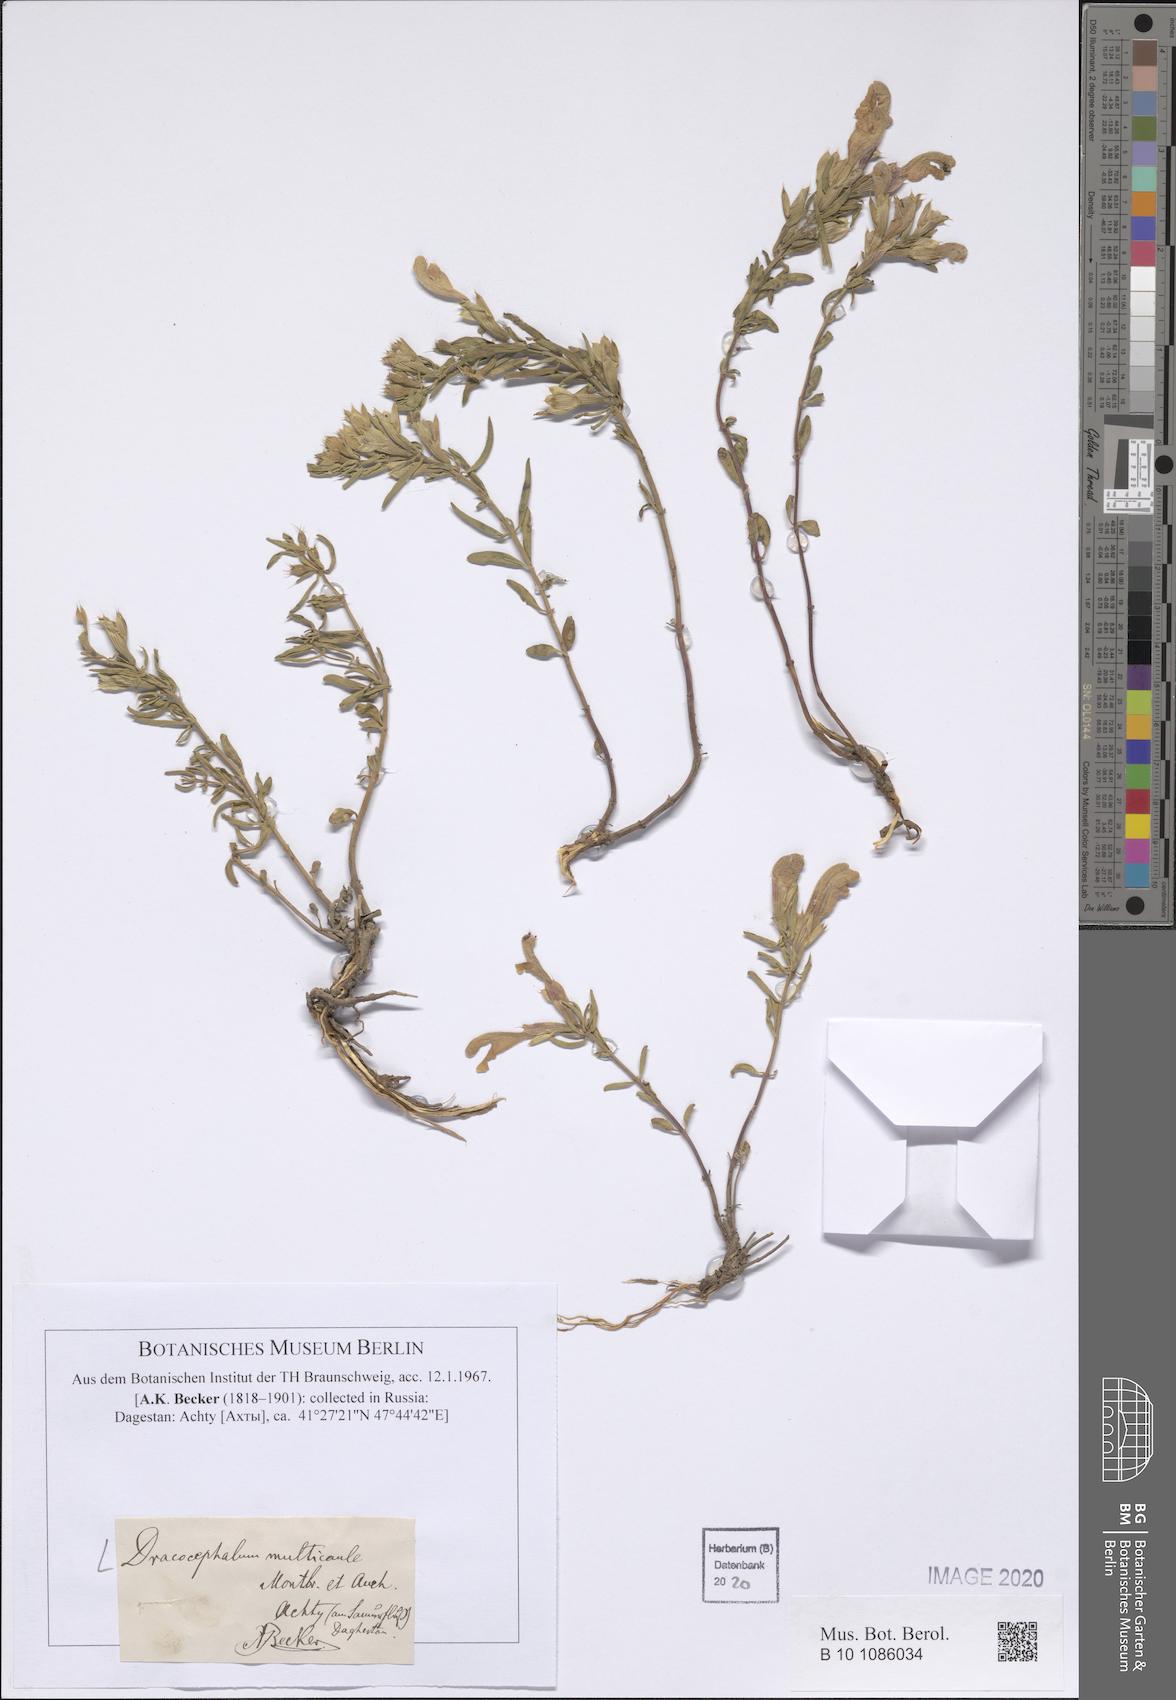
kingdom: Plantae
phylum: Tracheophyta
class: Magnoliopsida
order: Lamiales
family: Lamiaceae
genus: Dracocephalum
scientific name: Dracocephalum multicaule
